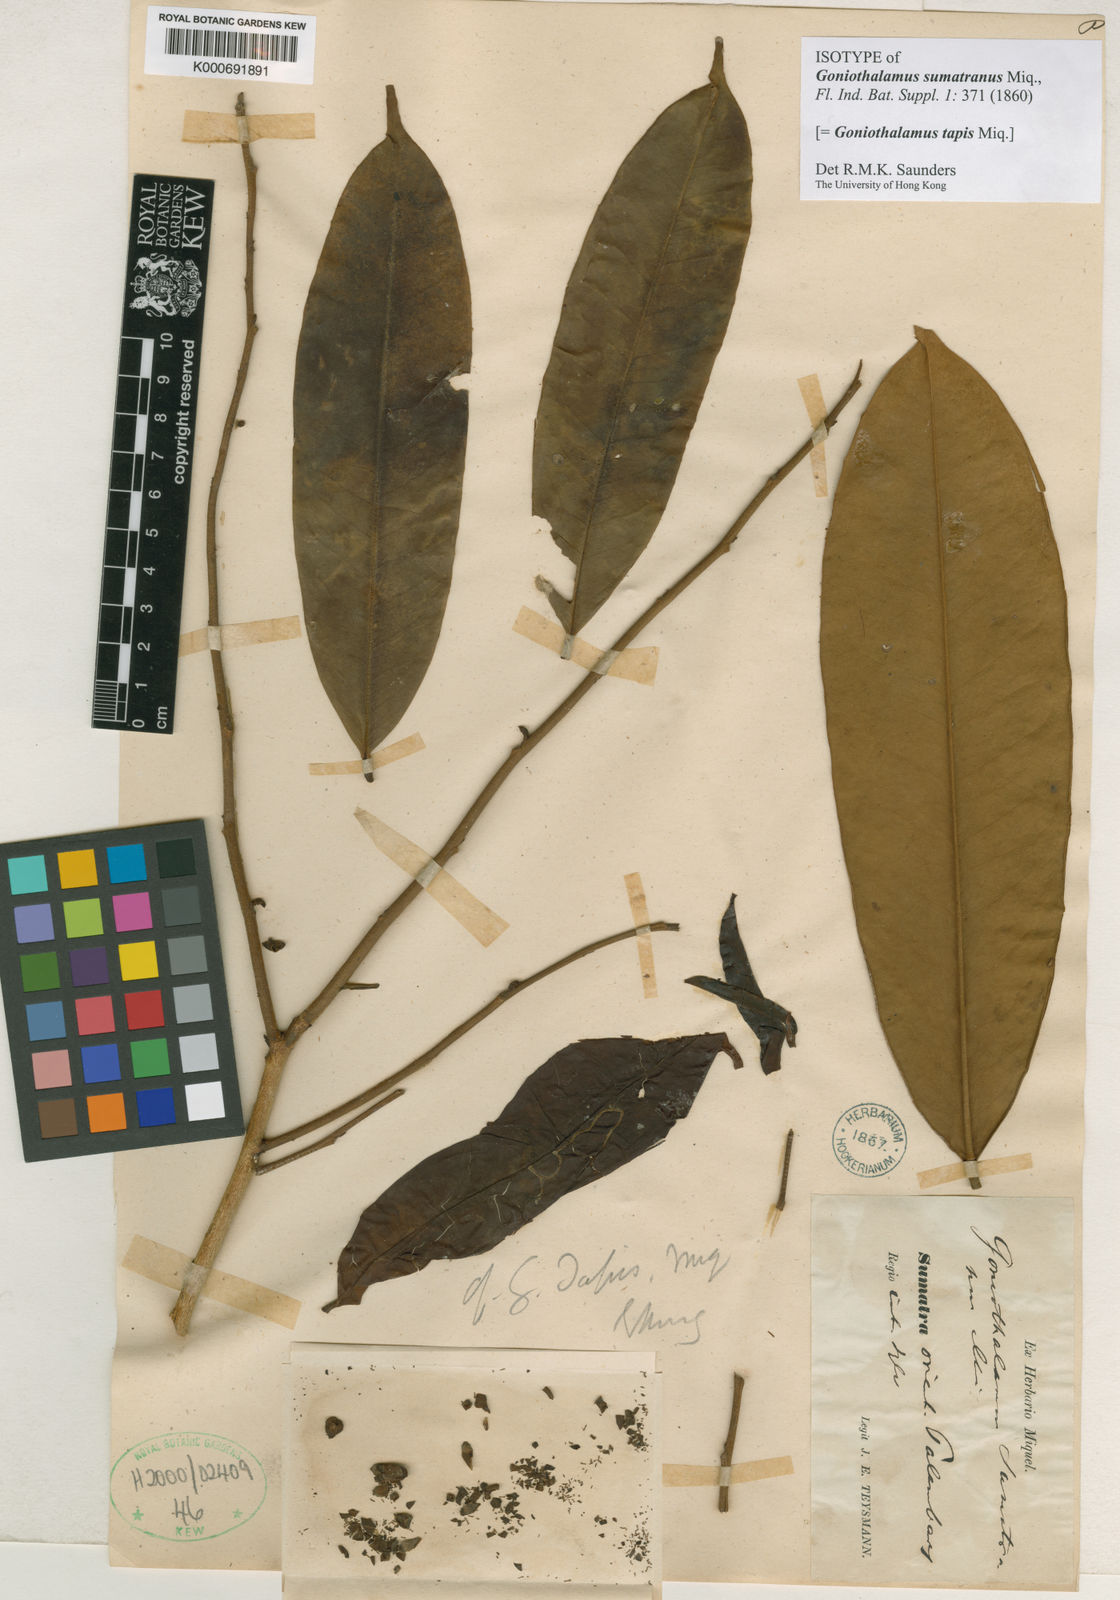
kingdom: Plantae
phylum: Tracheophyta
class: Magnoliopsida
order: Magnoliales
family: Annonaceae
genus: Goniothalamus
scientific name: Goniothalamus tapis
